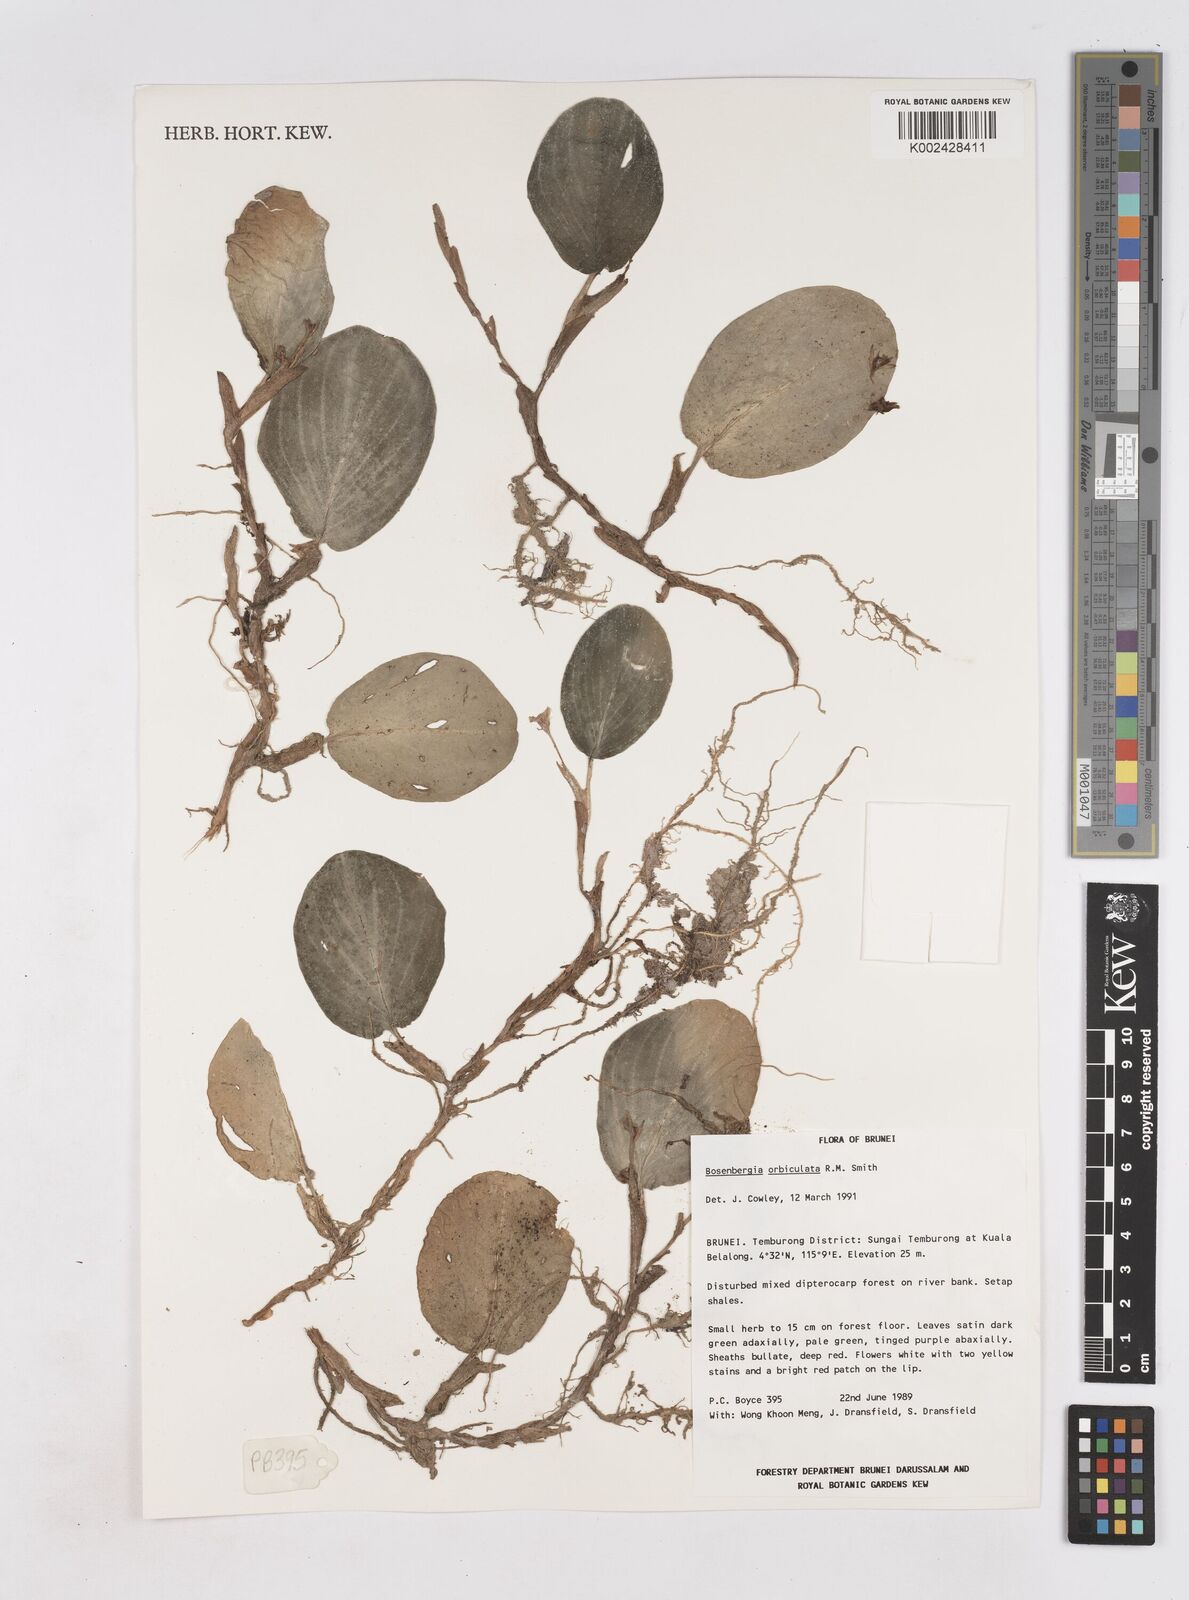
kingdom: Plantae
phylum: Tracheophyta
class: Liliopsida
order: Zingiberales
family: Zingiberaceae
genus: Boesenbergia
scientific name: Boesenbergia orbiculata
